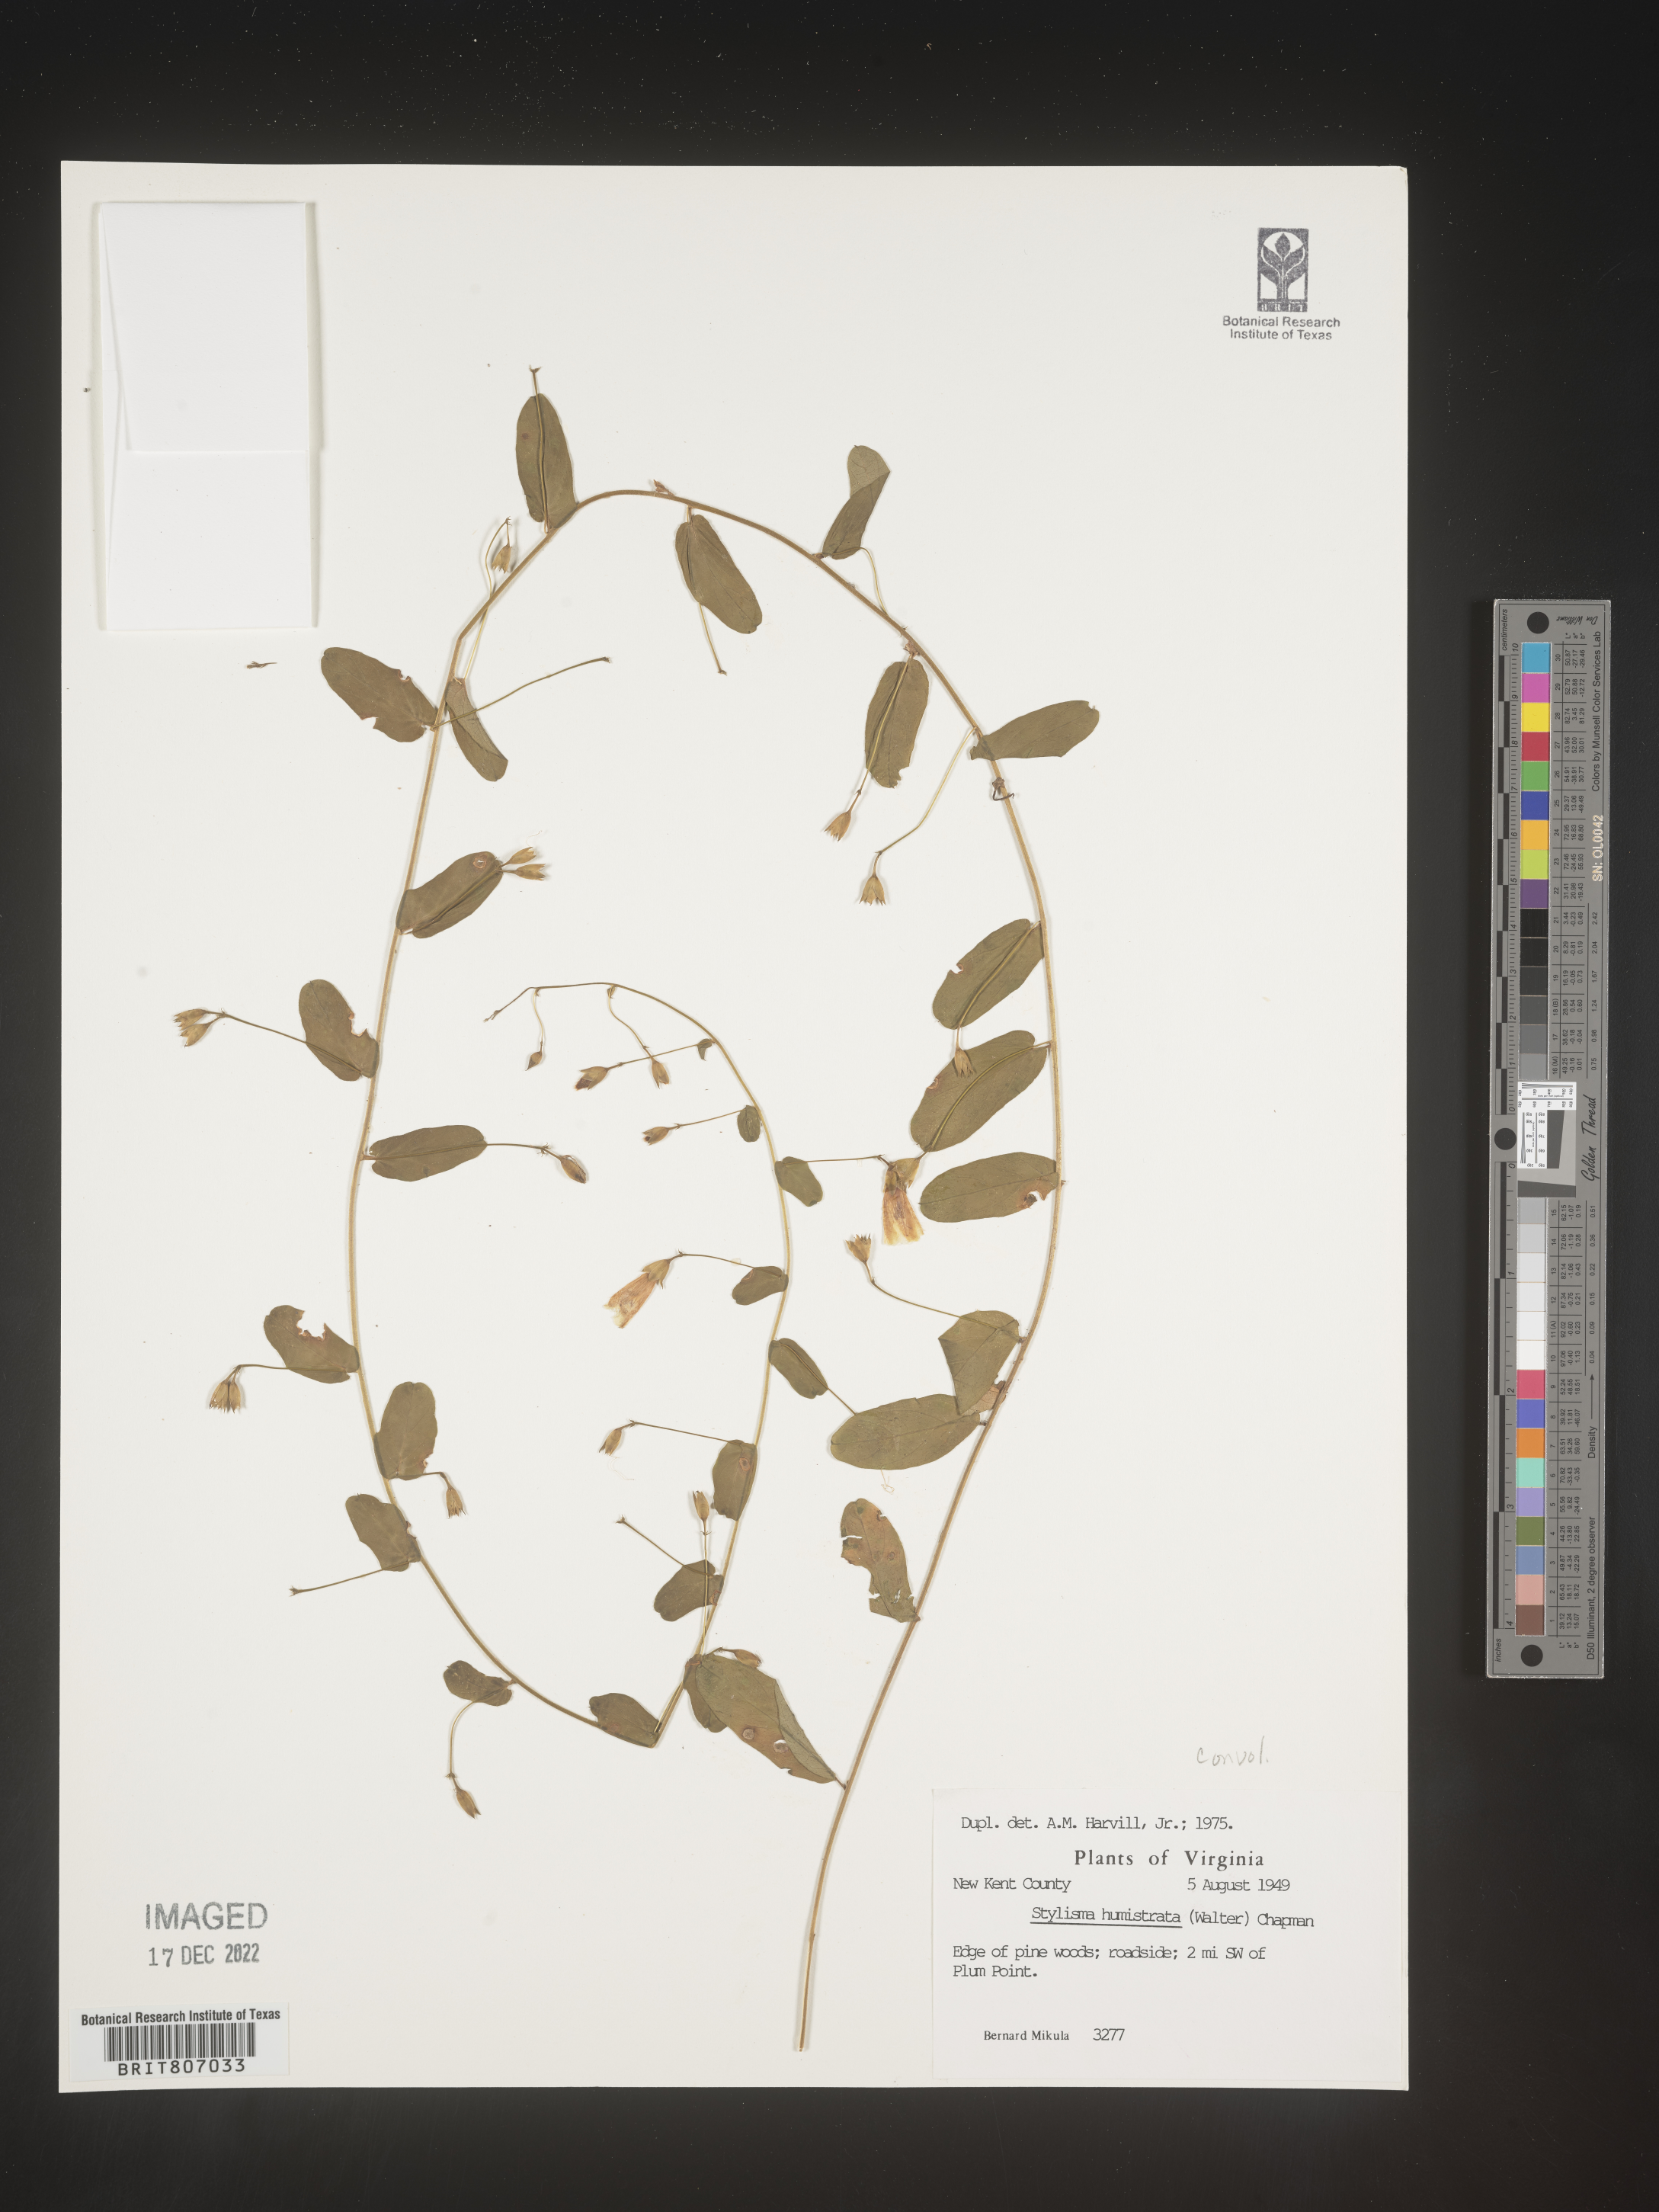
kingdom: Plantae
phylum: Tracheophyta
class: Magnoliopsida
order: Solanales
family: Convolvulaceae
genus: Stylisma
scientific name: Stylisma humistrata
